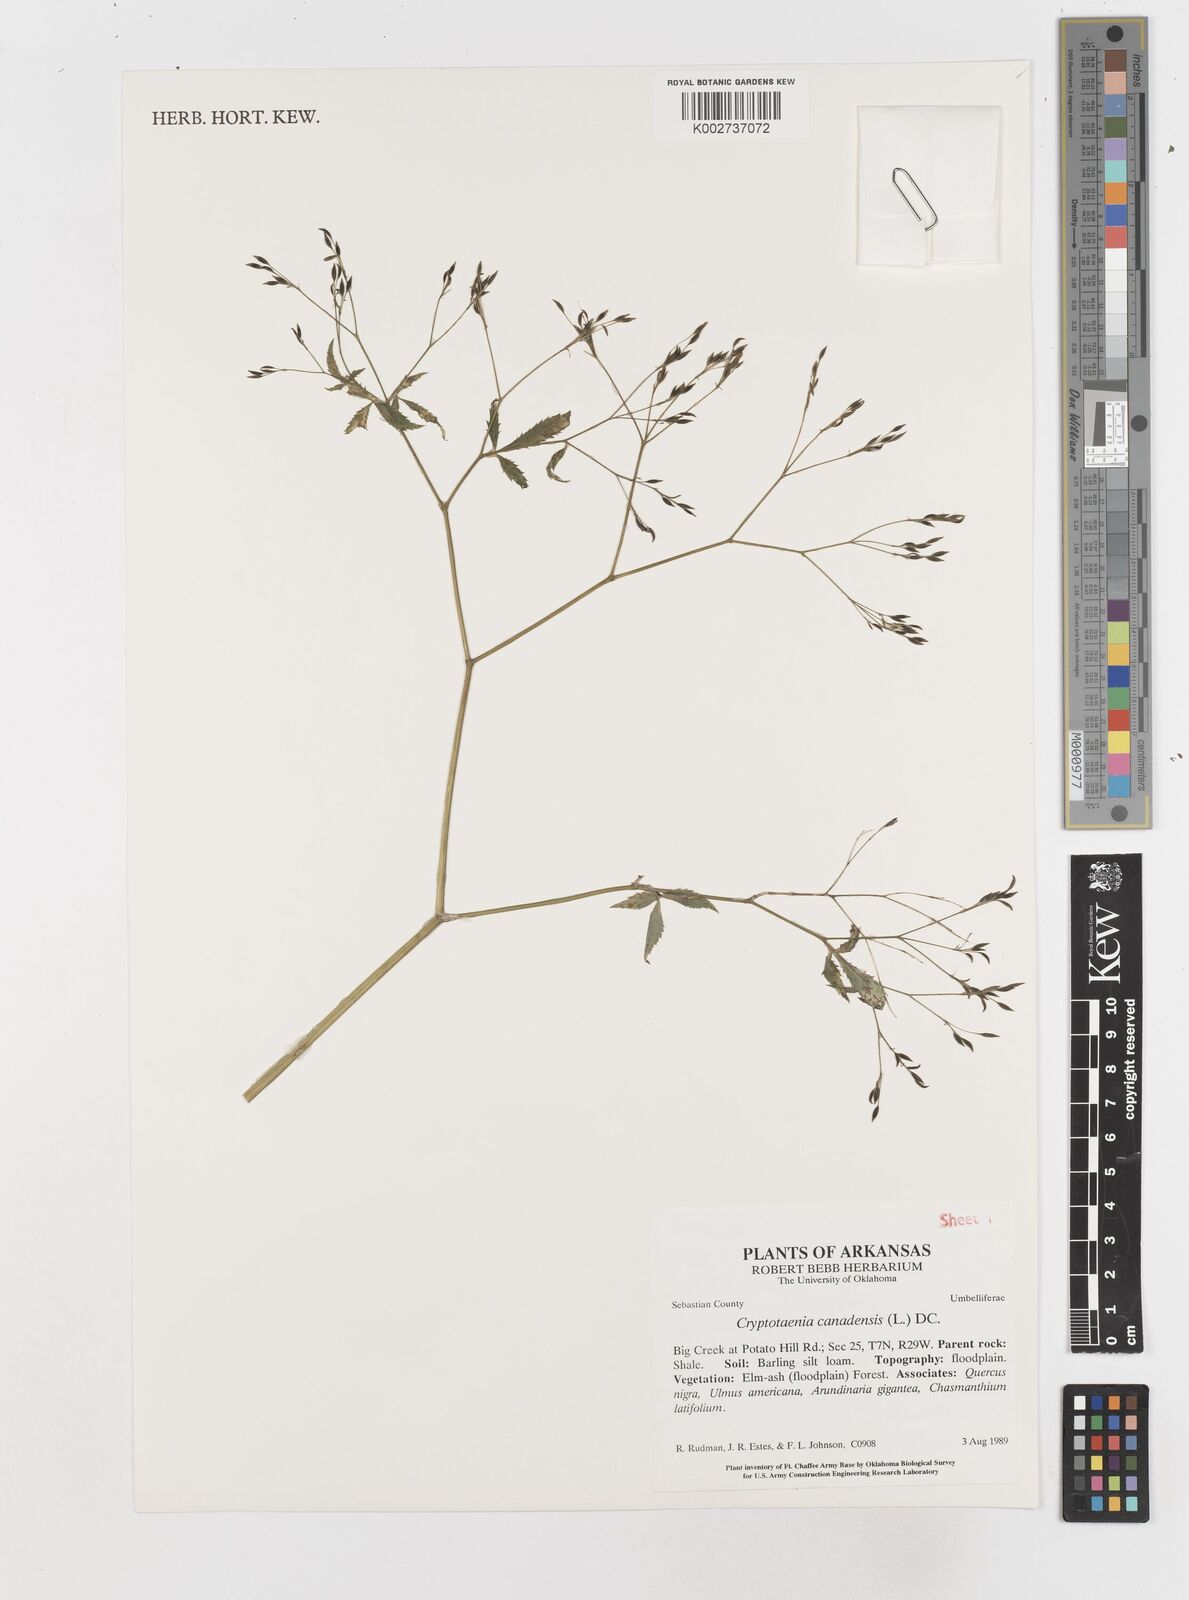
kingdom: Plantae
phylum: Tracheophyta
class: Magnoliopsida
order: Apiales
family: Apiaceae
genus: Cryptotaenia
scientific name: Cryptotaenia canadensis
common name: Honewort
